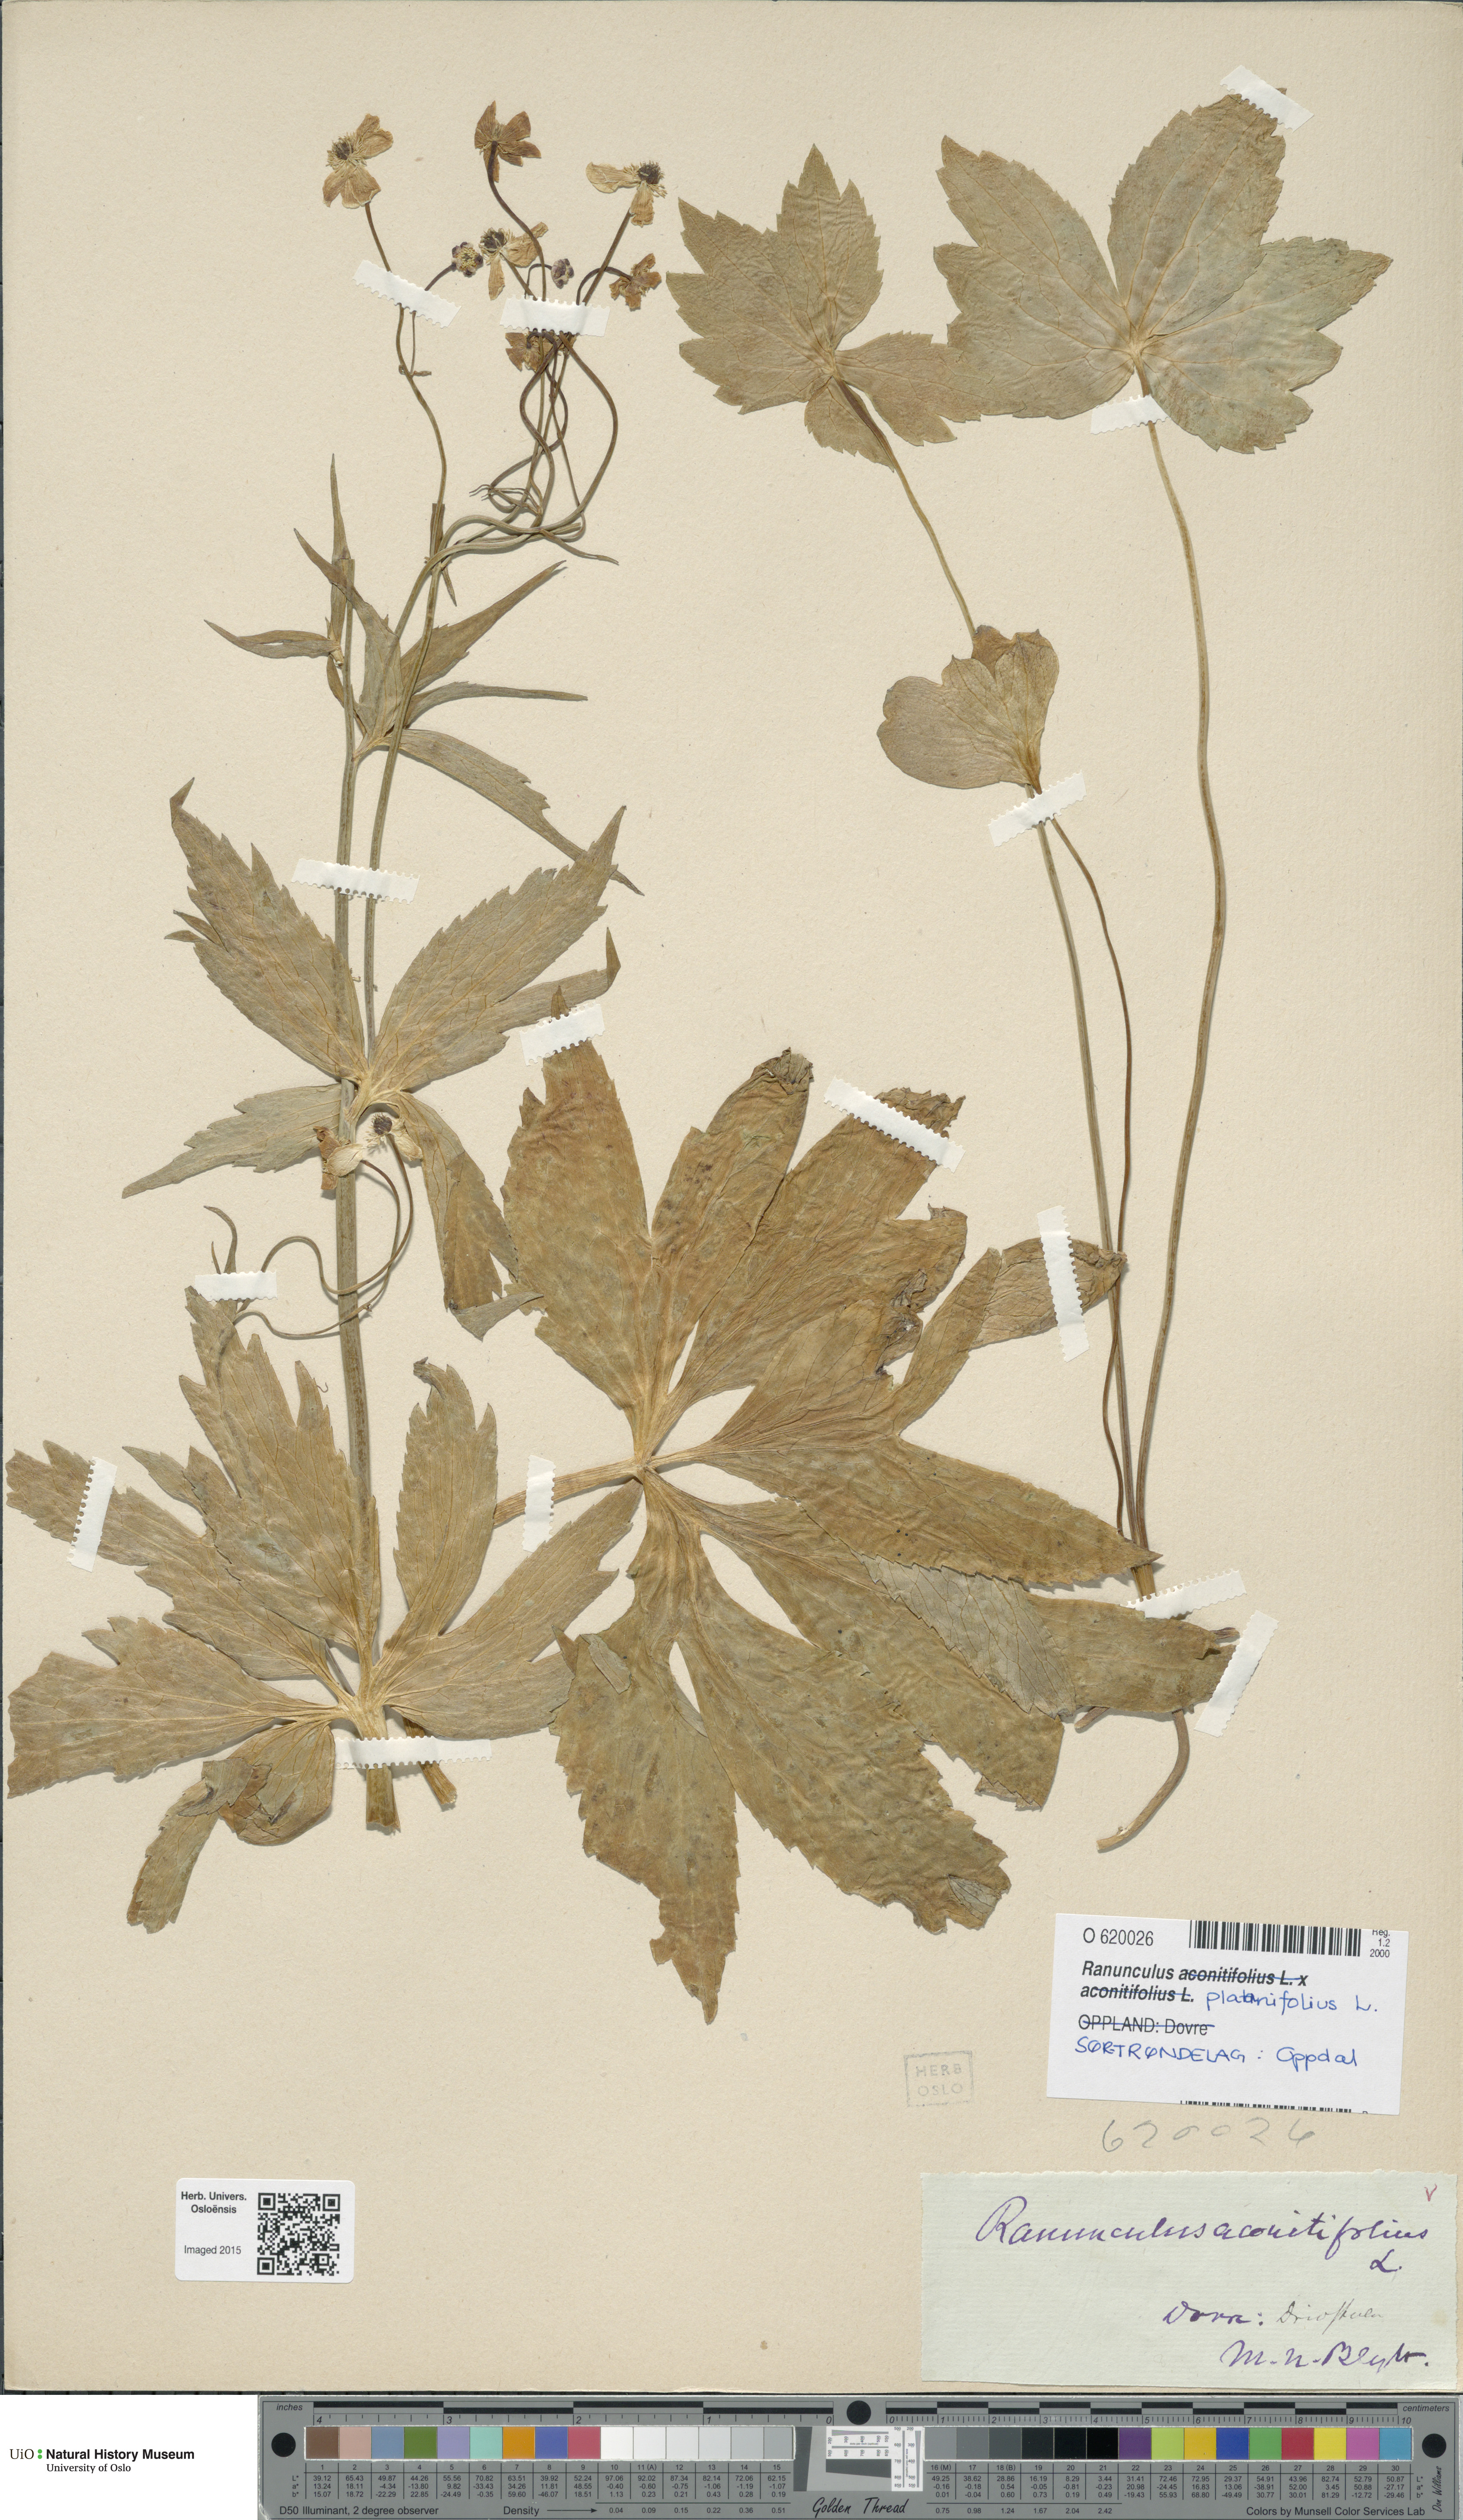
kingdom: Plantae
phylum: Tracheophyta
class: Magnoliopsida
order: Ranunculales
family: Ranunculaceae
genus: Ranunculus
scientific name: Ranunculus platanifolius
